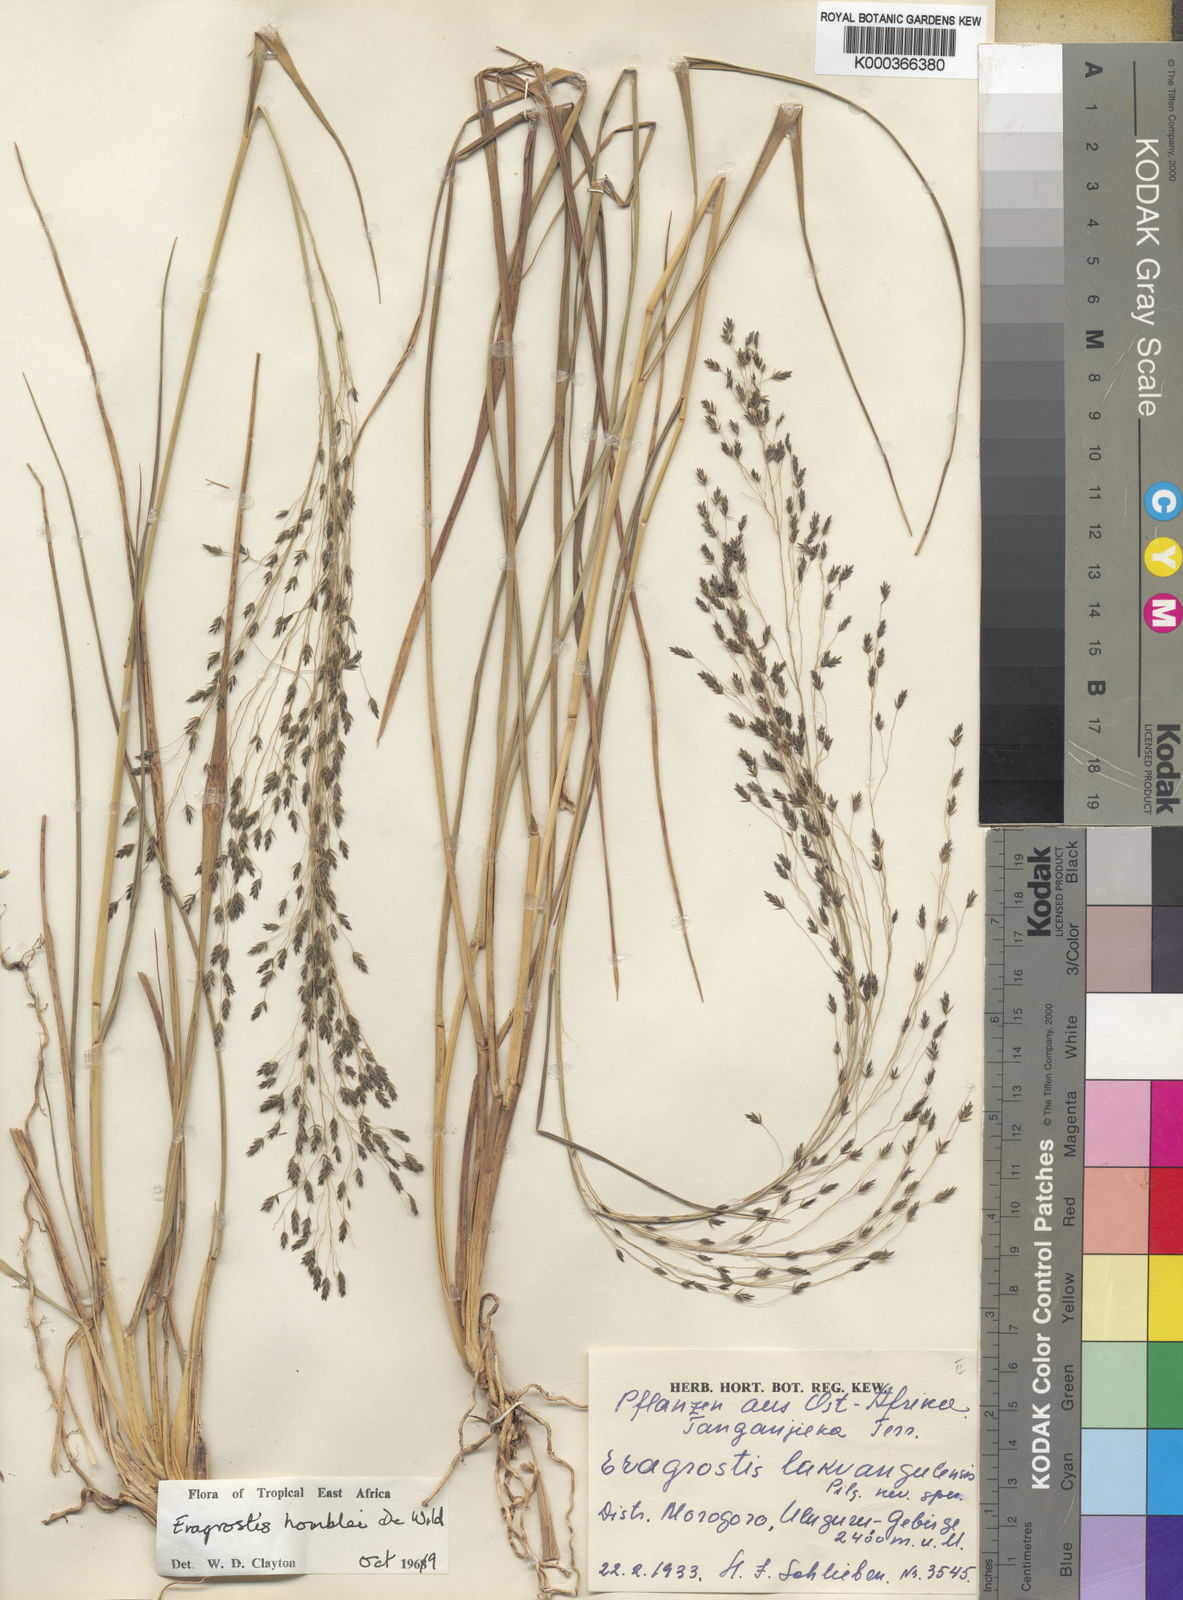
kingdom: Plantae
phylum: Tracheophyta
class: Liliopsida
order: Poales
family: Poaceae
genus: Eragrostis
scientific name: Eragrostis homblei
